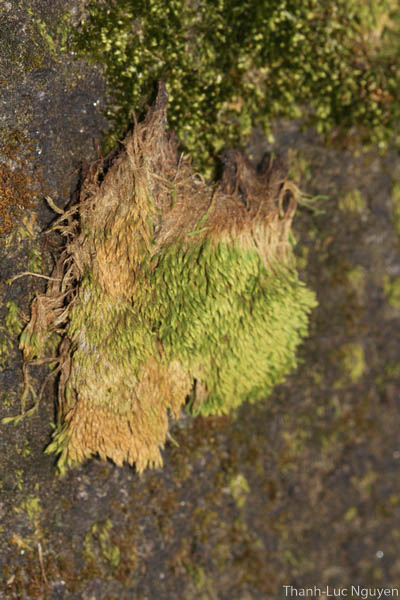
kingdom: Plantae
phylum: Bryophyta
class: Bryopsida
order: Bartramiales
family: Bartramiaceae
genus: Philonotis
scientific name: Philonotis falcata
